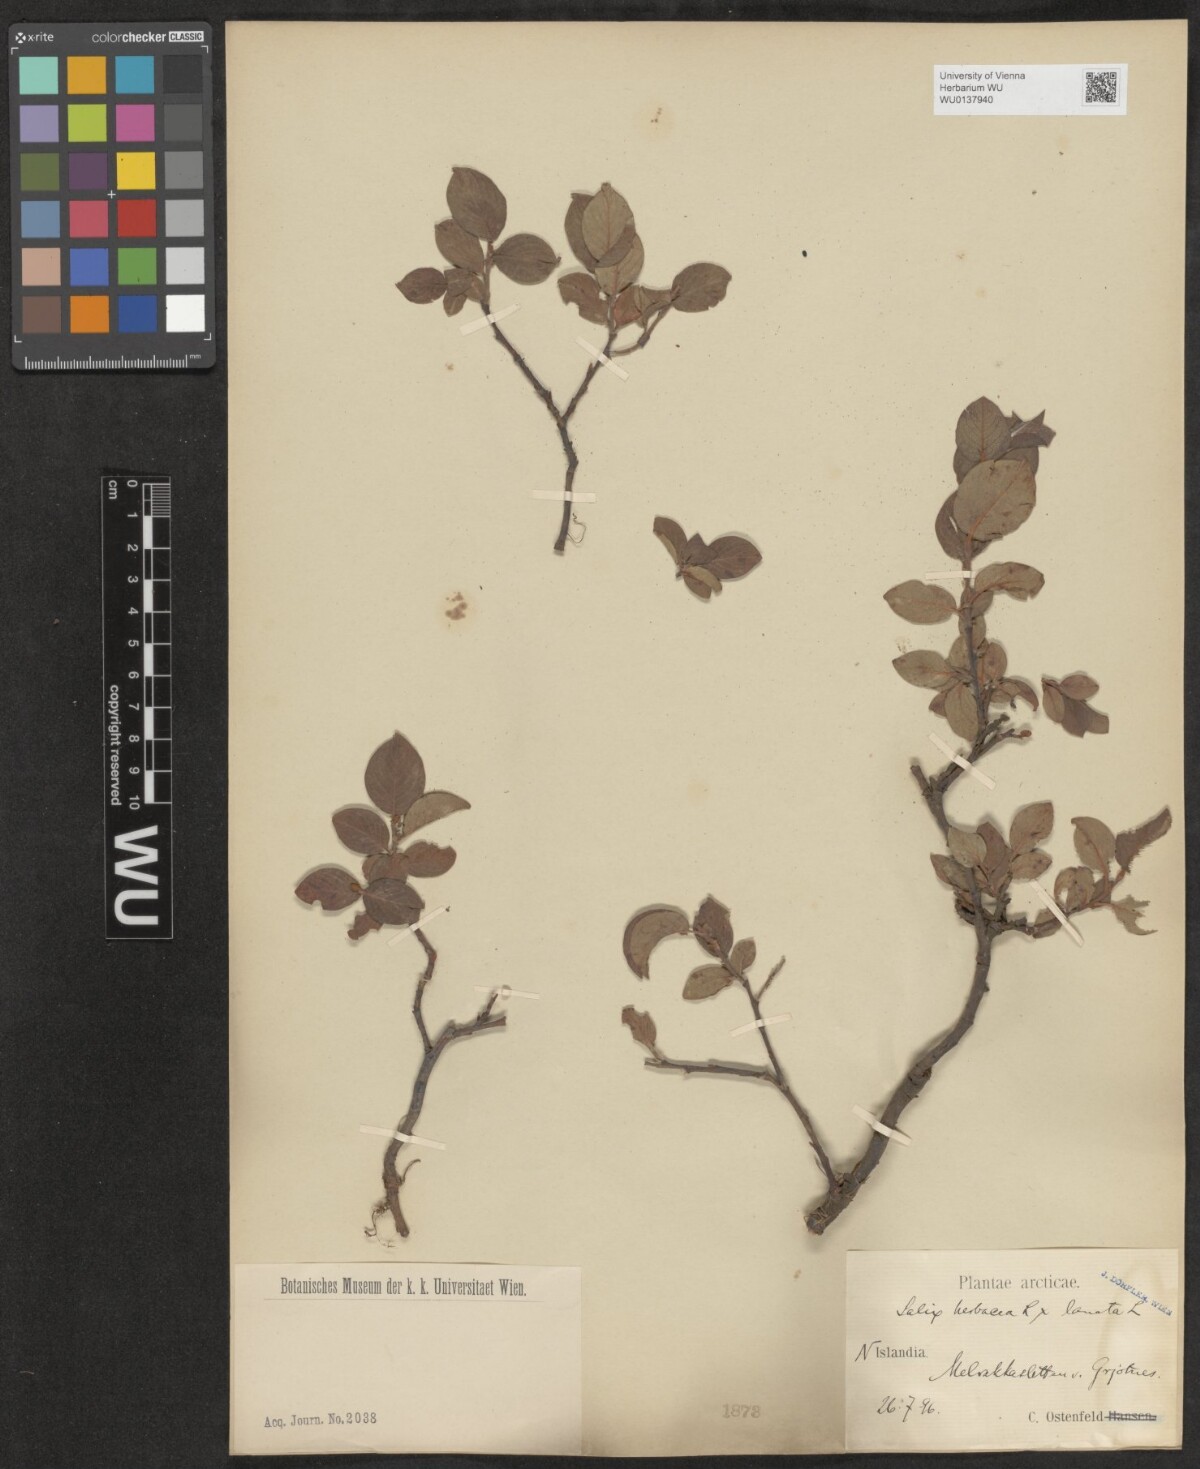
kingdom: Plantae
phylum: Tracheophyta
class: Magnoliopsida
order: Malpighiales
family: Salicaceae
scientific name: Salicaceae
